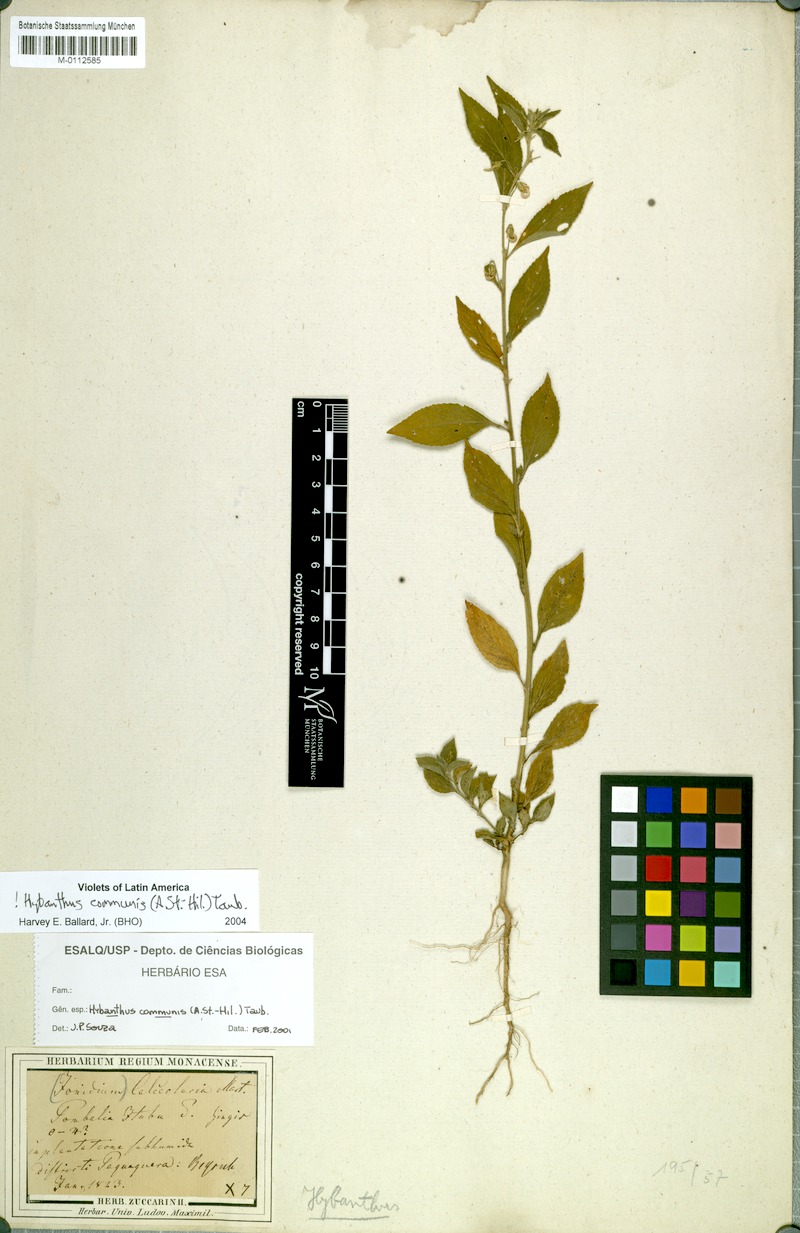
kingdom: Plantae
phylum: Tracheophyta
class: Magnoliopsida
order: Malpighiales
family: Violaceae
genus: Pombalia
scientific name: Pombalia communis
